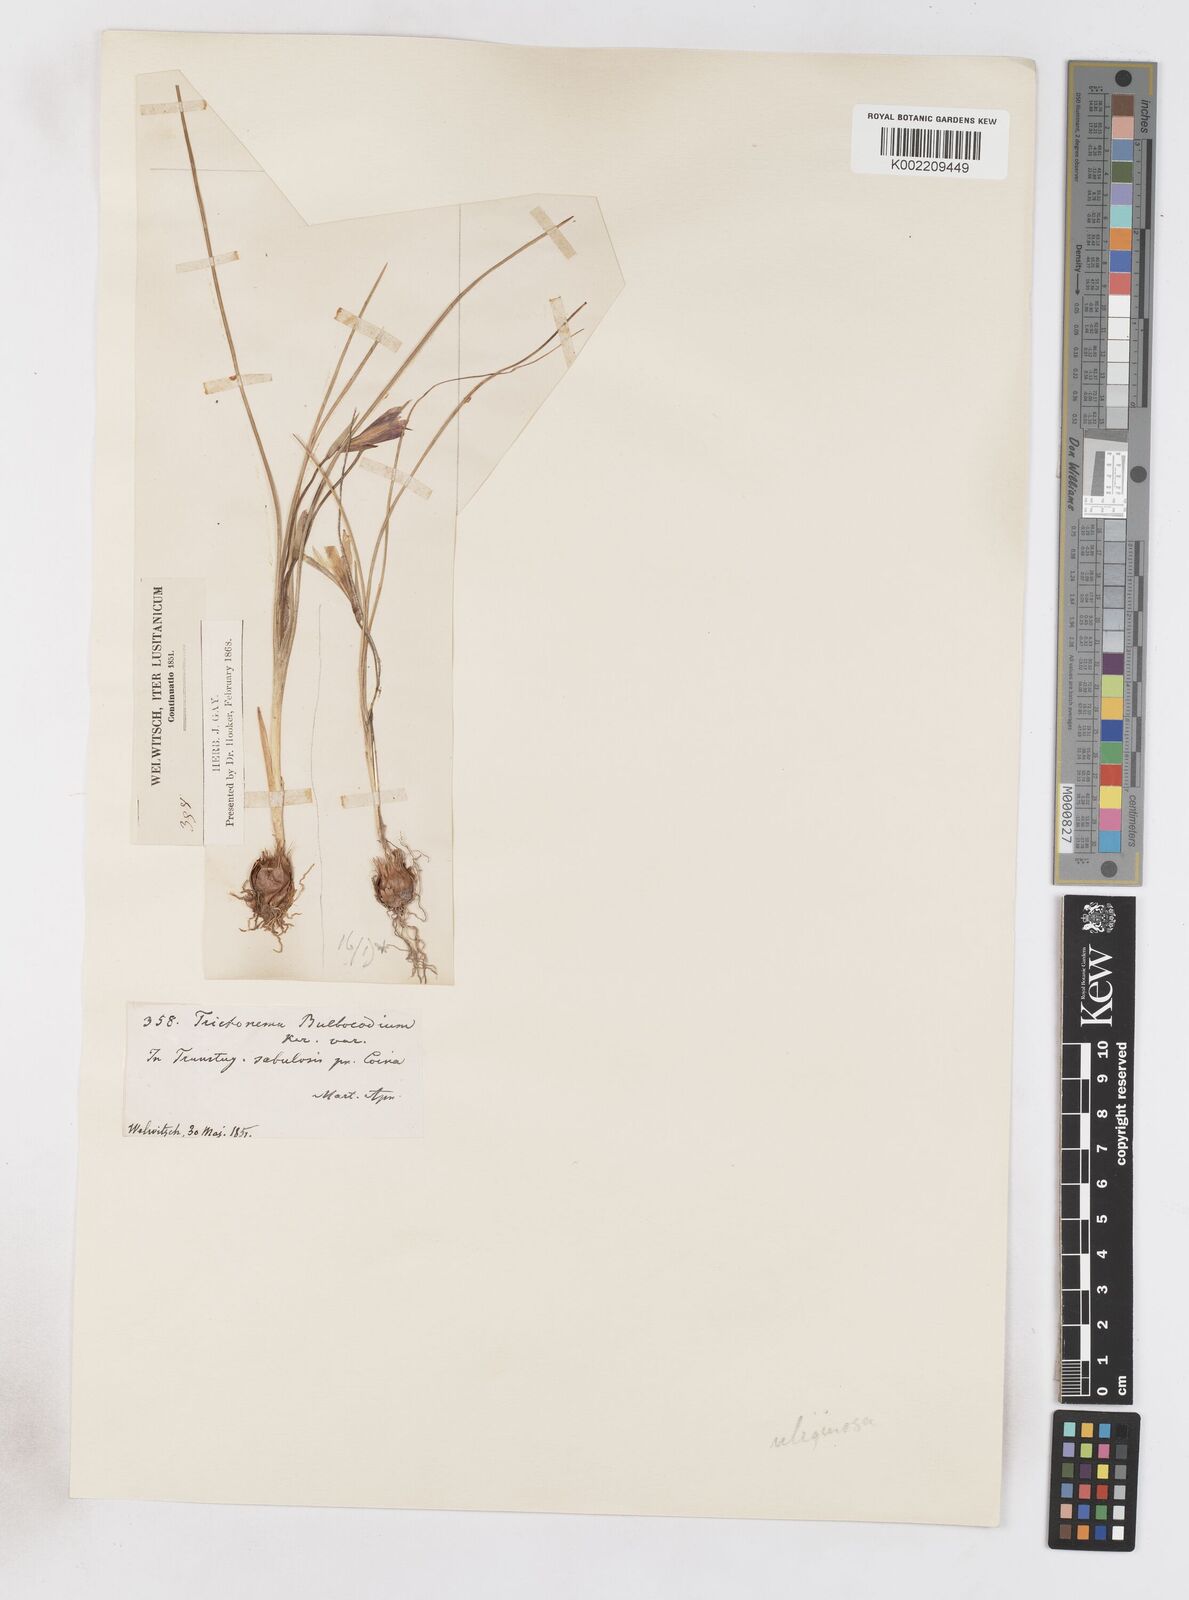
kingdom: Plantae
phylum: Tracheophyta
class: Liliopsida
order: Asparagales
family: Iridaceae
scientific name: Iridaceae
